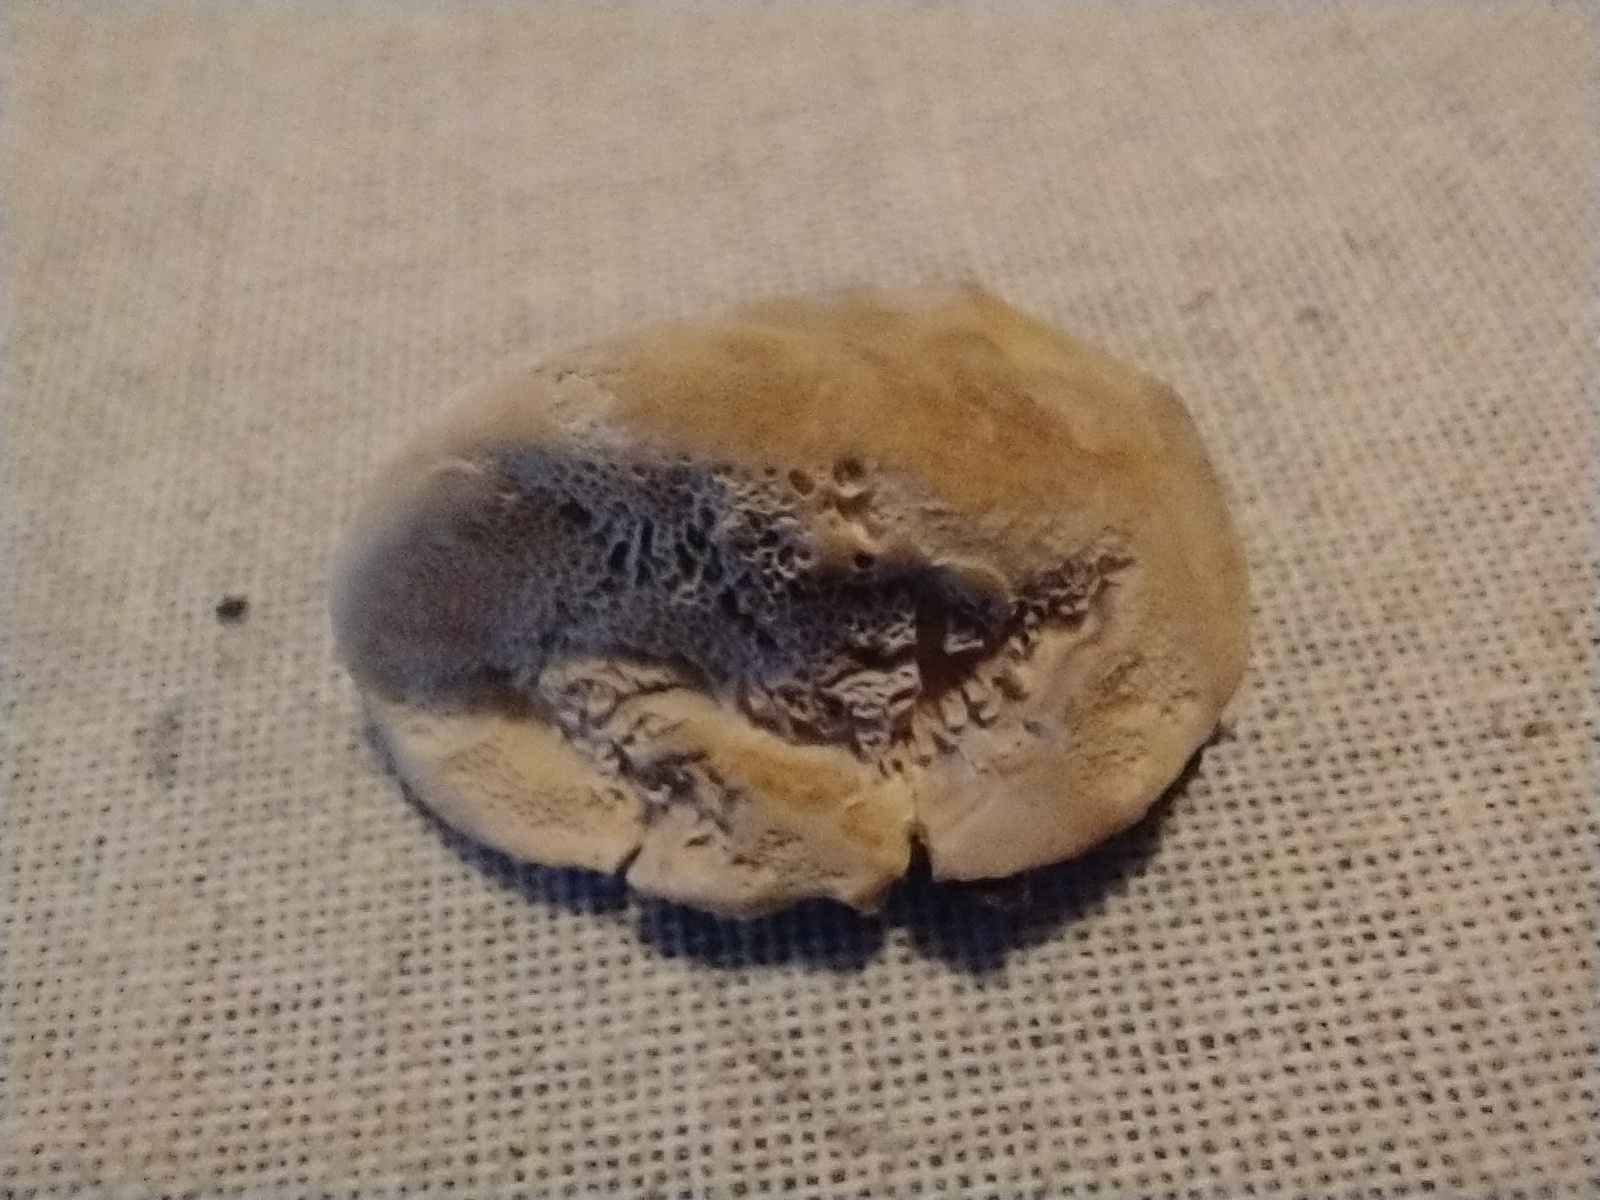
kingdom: Fungi
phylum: Basidiomycota
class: Agaricomycetes
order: Polyporales
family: Phanerochaetaceae
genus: Hapalopilus
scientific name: Hapalopilus rutilans
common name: rødlig okkerporesvamp
